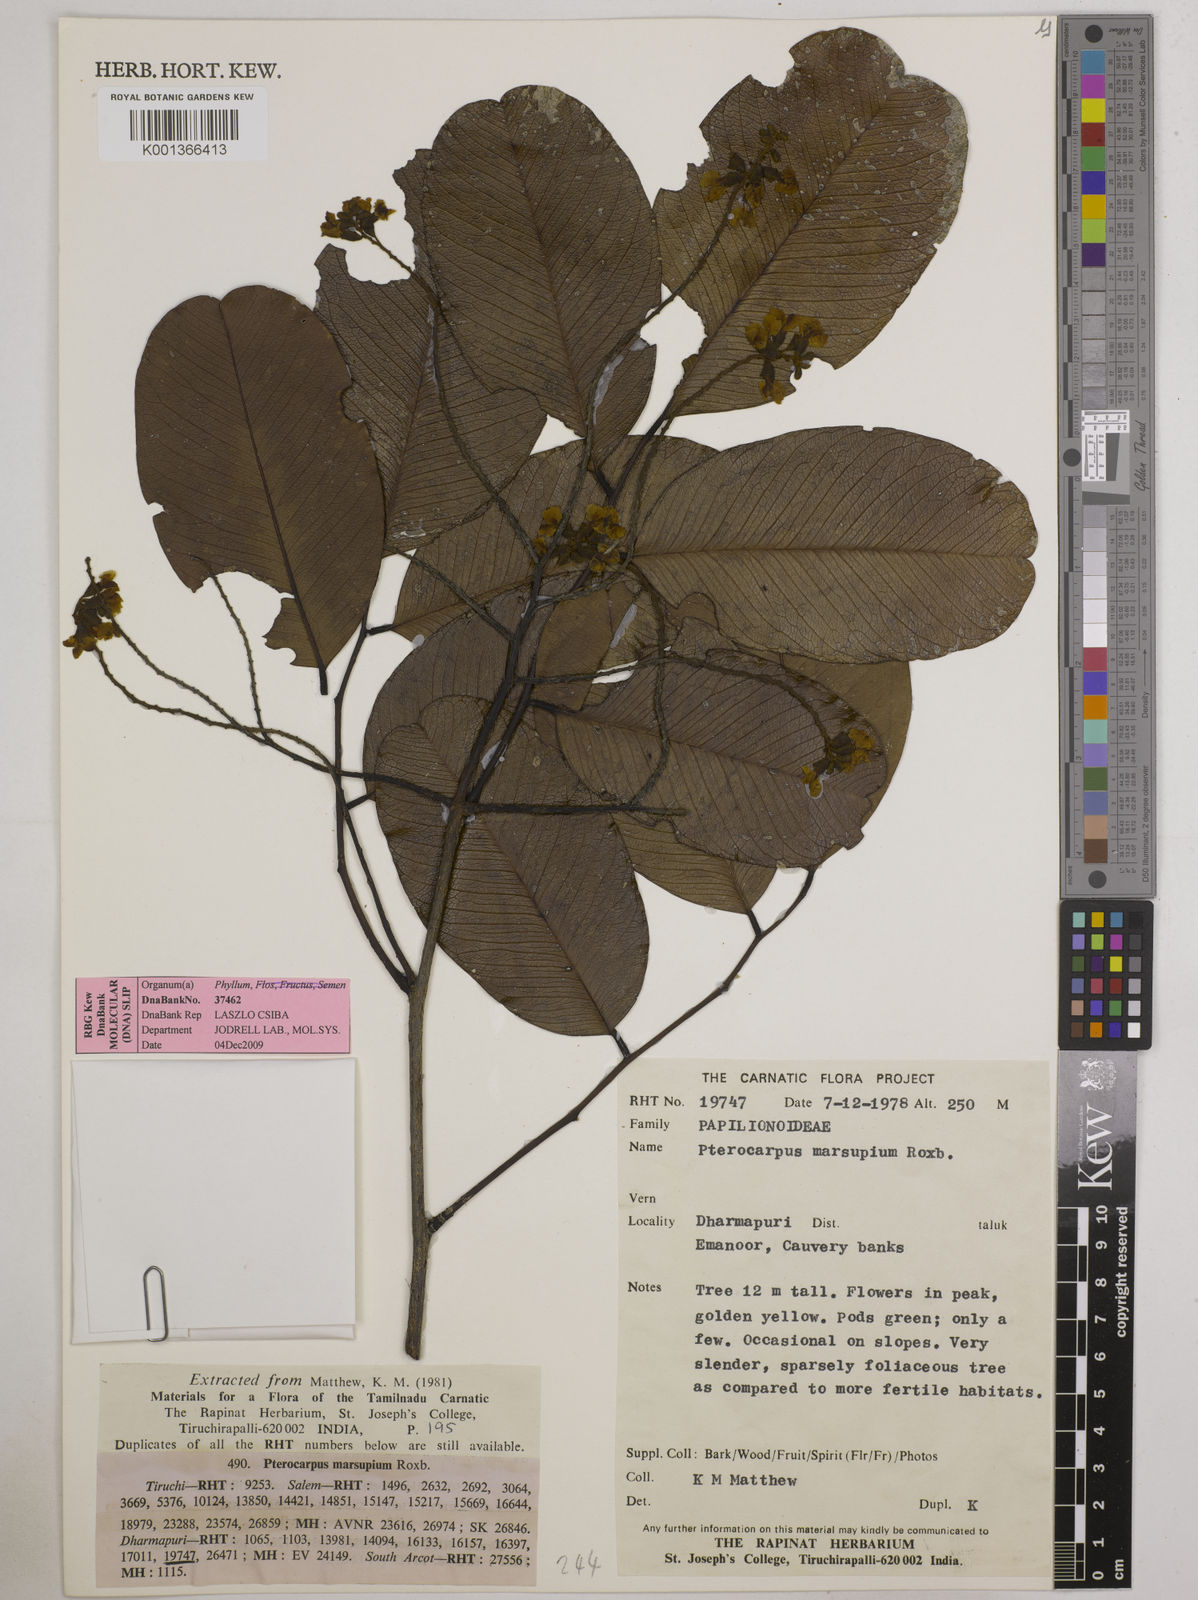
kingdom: Plantae
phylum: Tracheophyta
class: Magnoliopsida
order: Fabales
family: Fabaceae
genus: Pterocarpus
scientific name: Pterocarpus marsupium
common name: East indian/malabar kino
